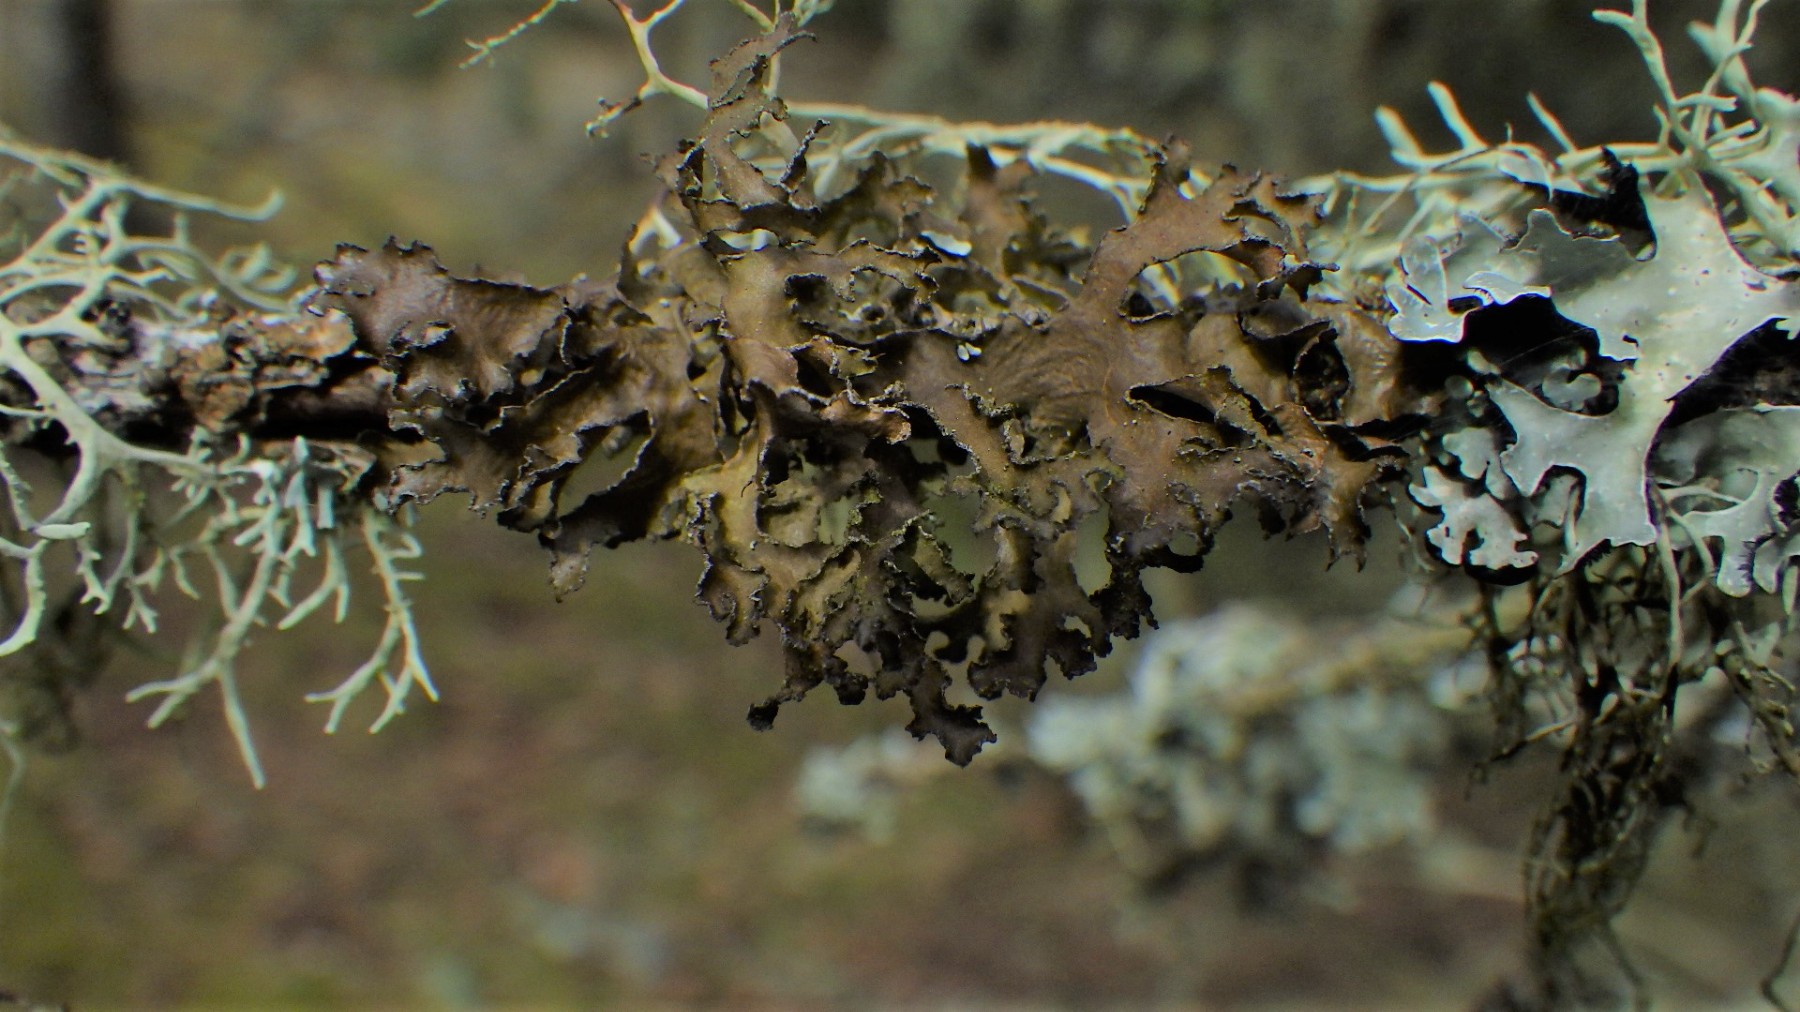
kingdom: Fungi
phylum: Ascomycota
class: Lecanoromycetes
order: Lecanorales
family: Parmeliaceae
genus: Nephromopsis
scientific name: Nephromopsis chlorophylla
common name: olivenbrun kruslav
